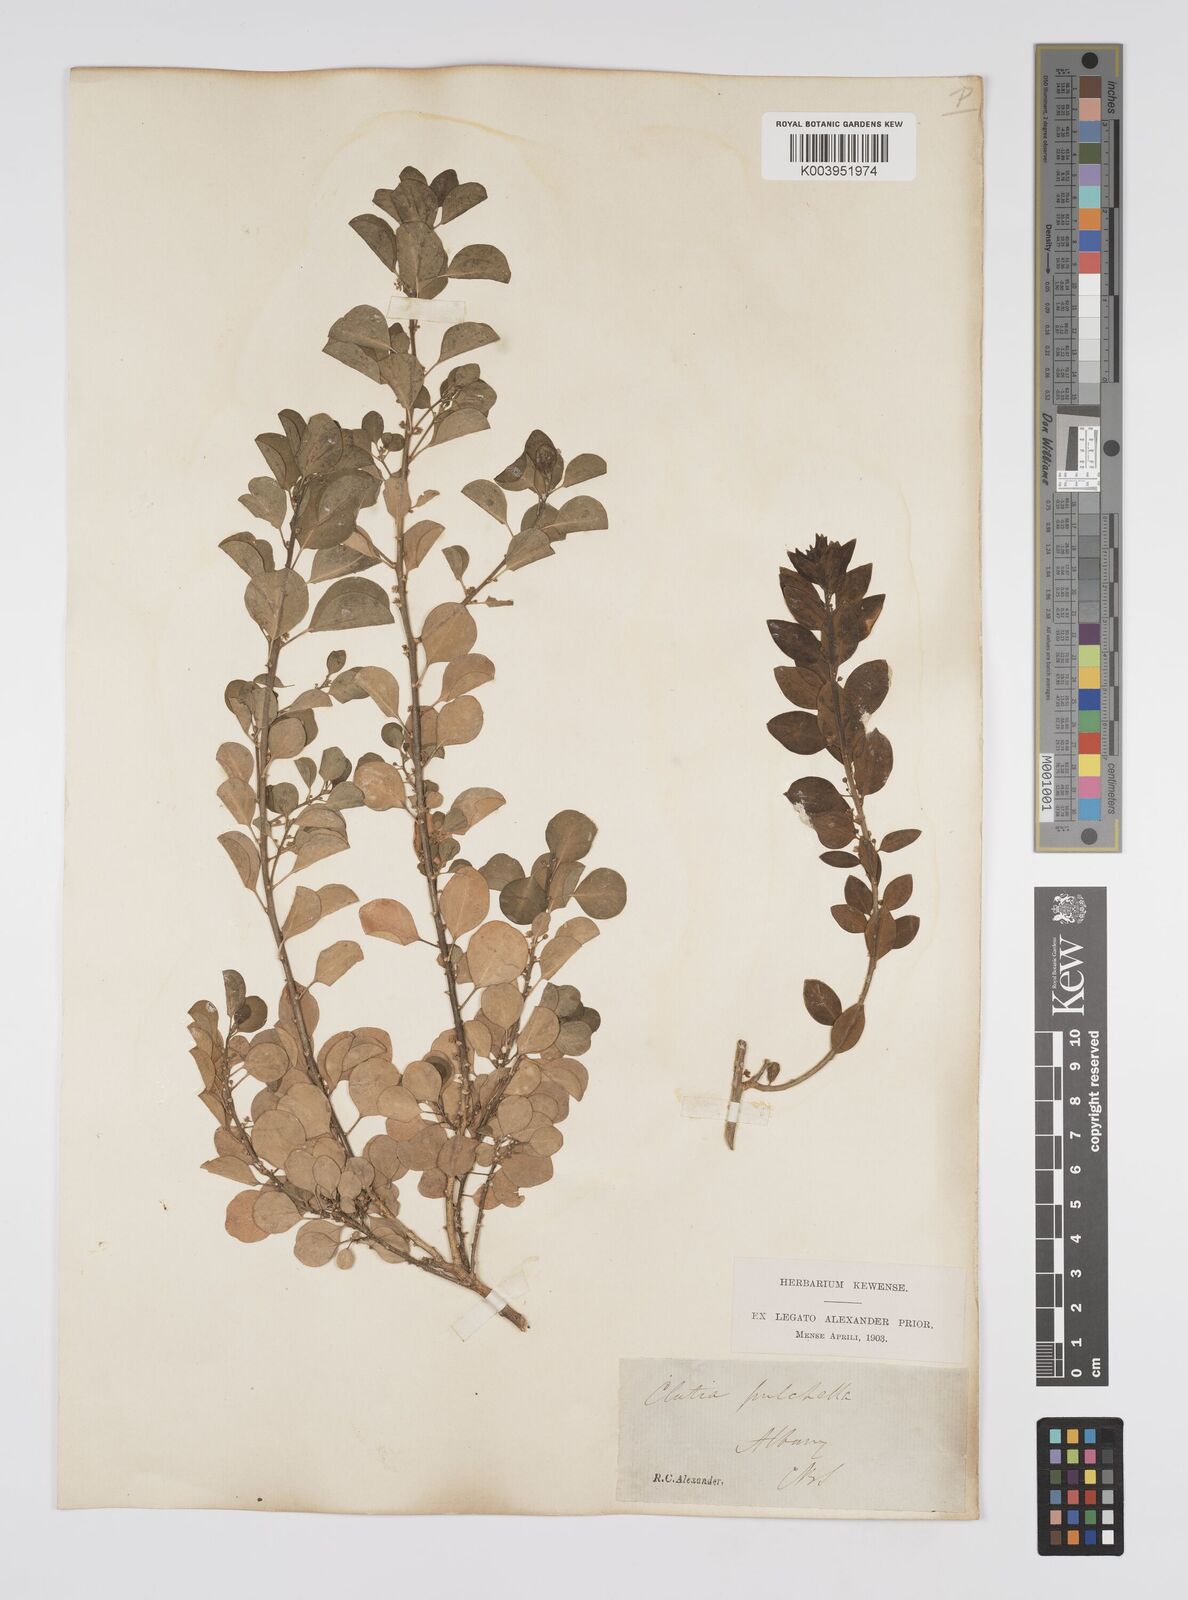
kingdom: Plantae
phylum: Tracheophyta
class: Magnoliopsida
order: Malpighiales
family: Peraceae
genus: Clutia
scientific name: Clutia pulchella
